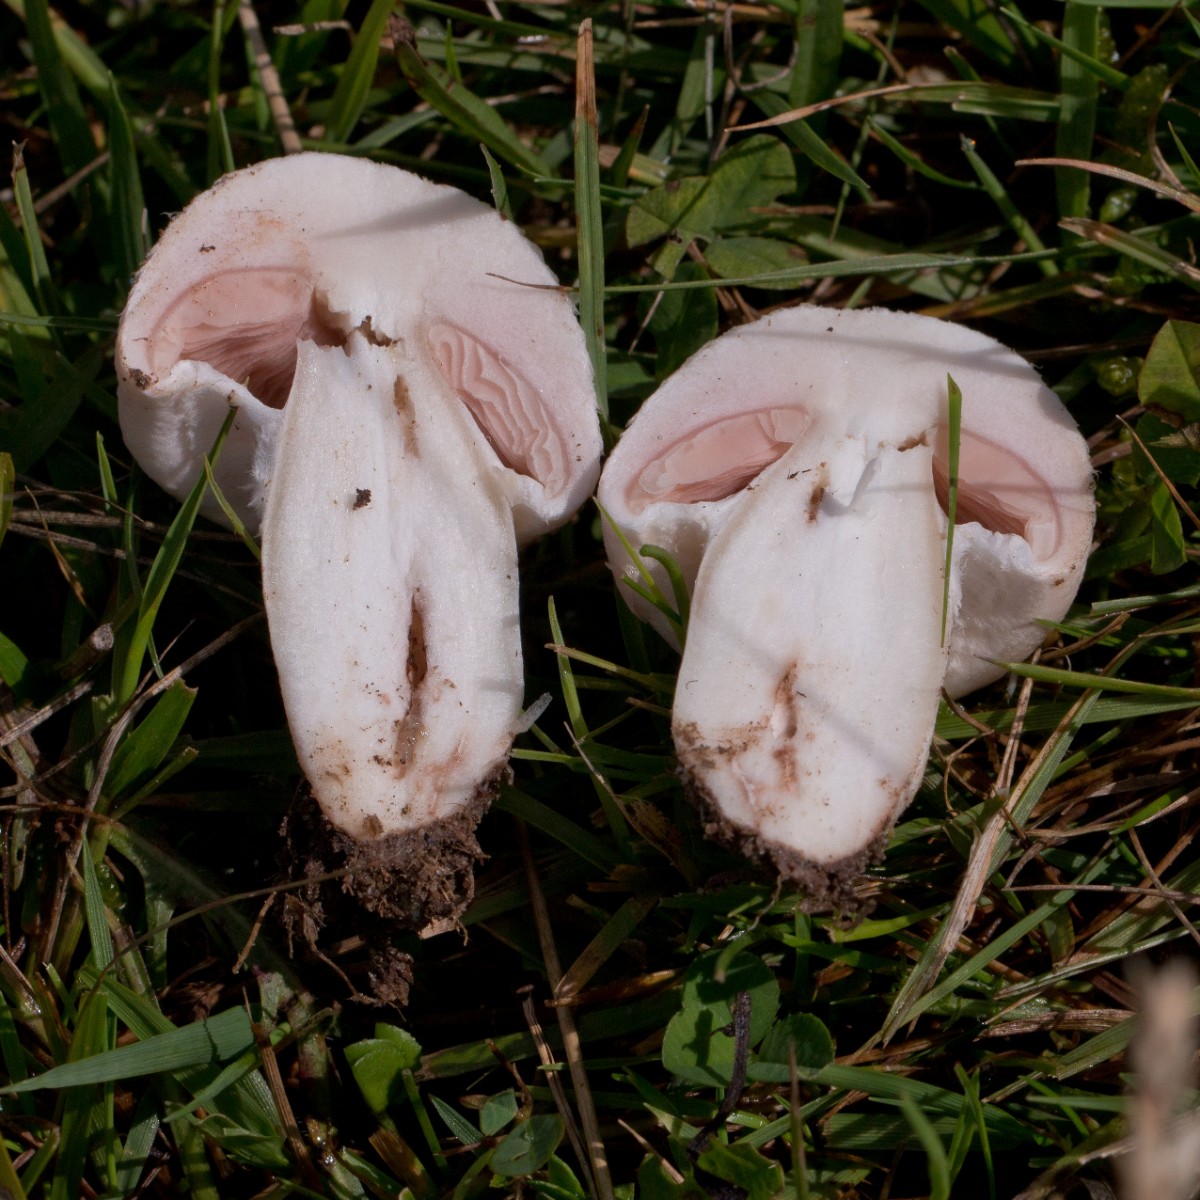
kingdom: Fungi
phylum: Basidiomycota
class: Agaricomycetes
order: Agaricales
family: Agaricaceae
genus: Agaricus
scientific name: Agaricus
